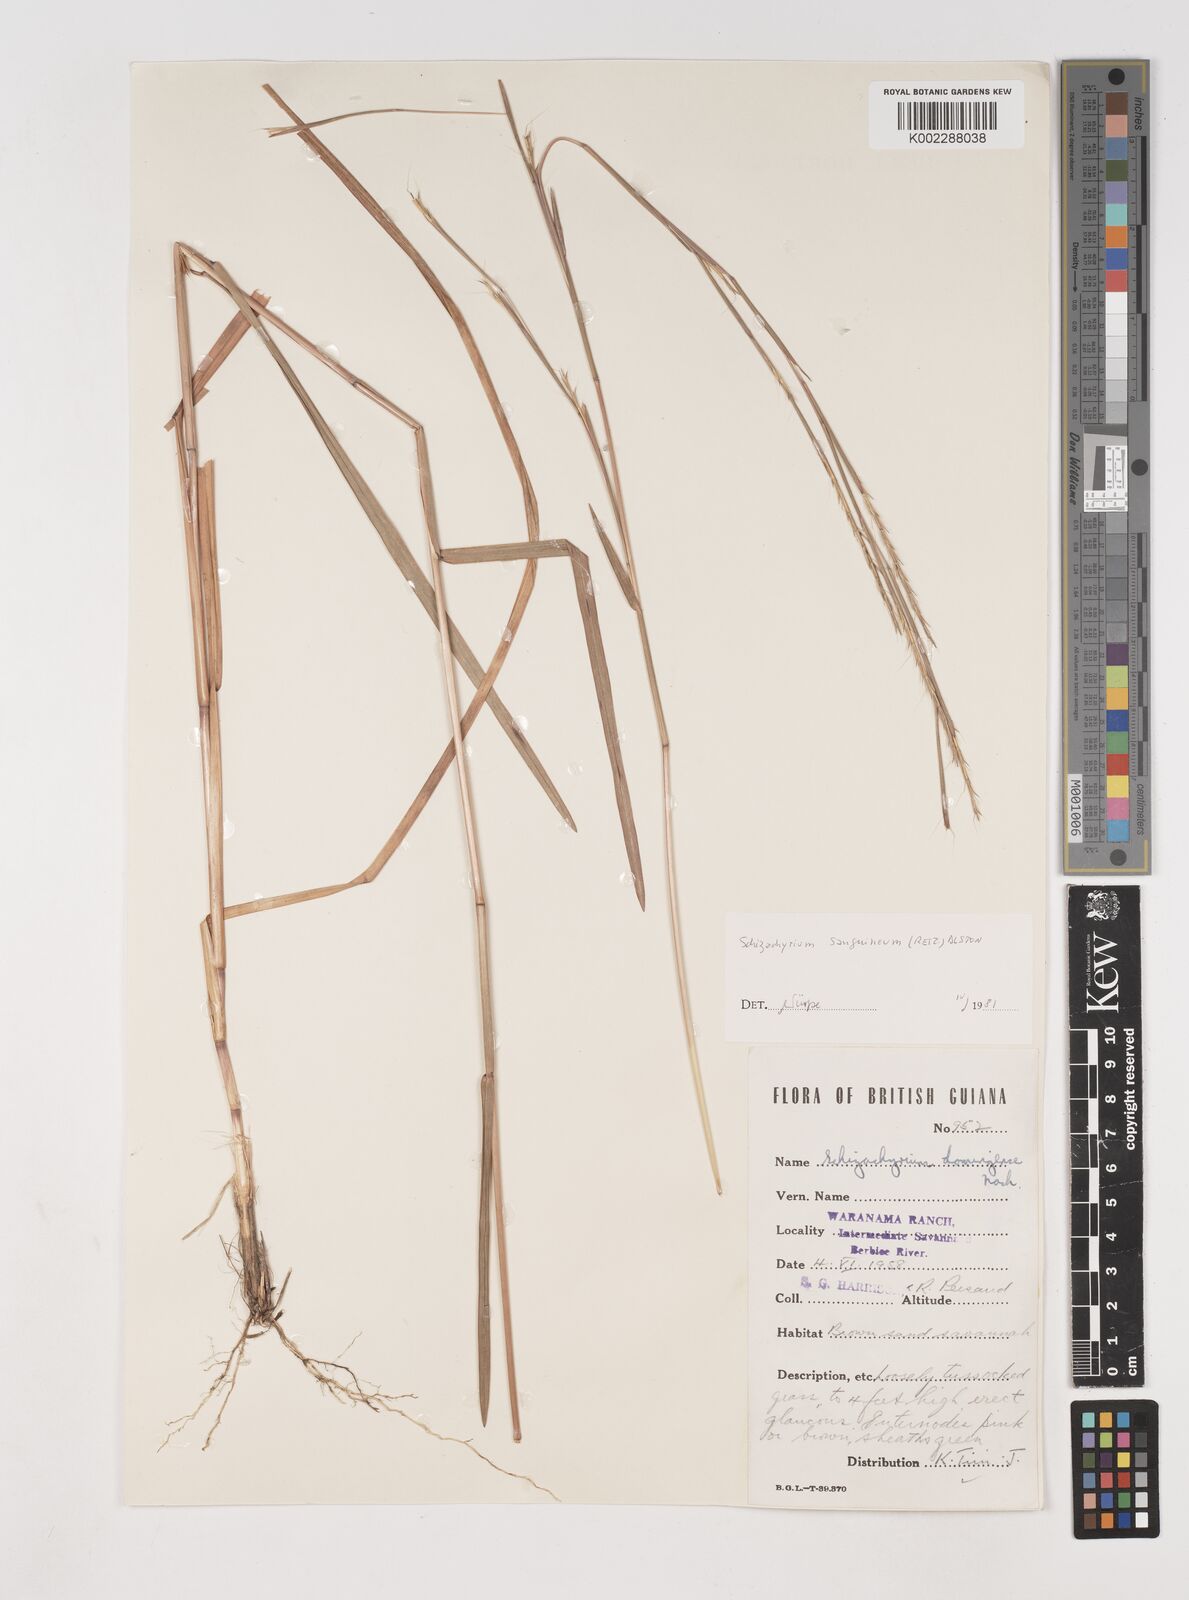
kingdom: Plantae
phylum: Tracheophyta
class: Liliopsida
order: Poales
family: Poaceae
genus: Schizachyrium
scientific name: Schizachyrium sanguineum
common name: Crimson bluestem
